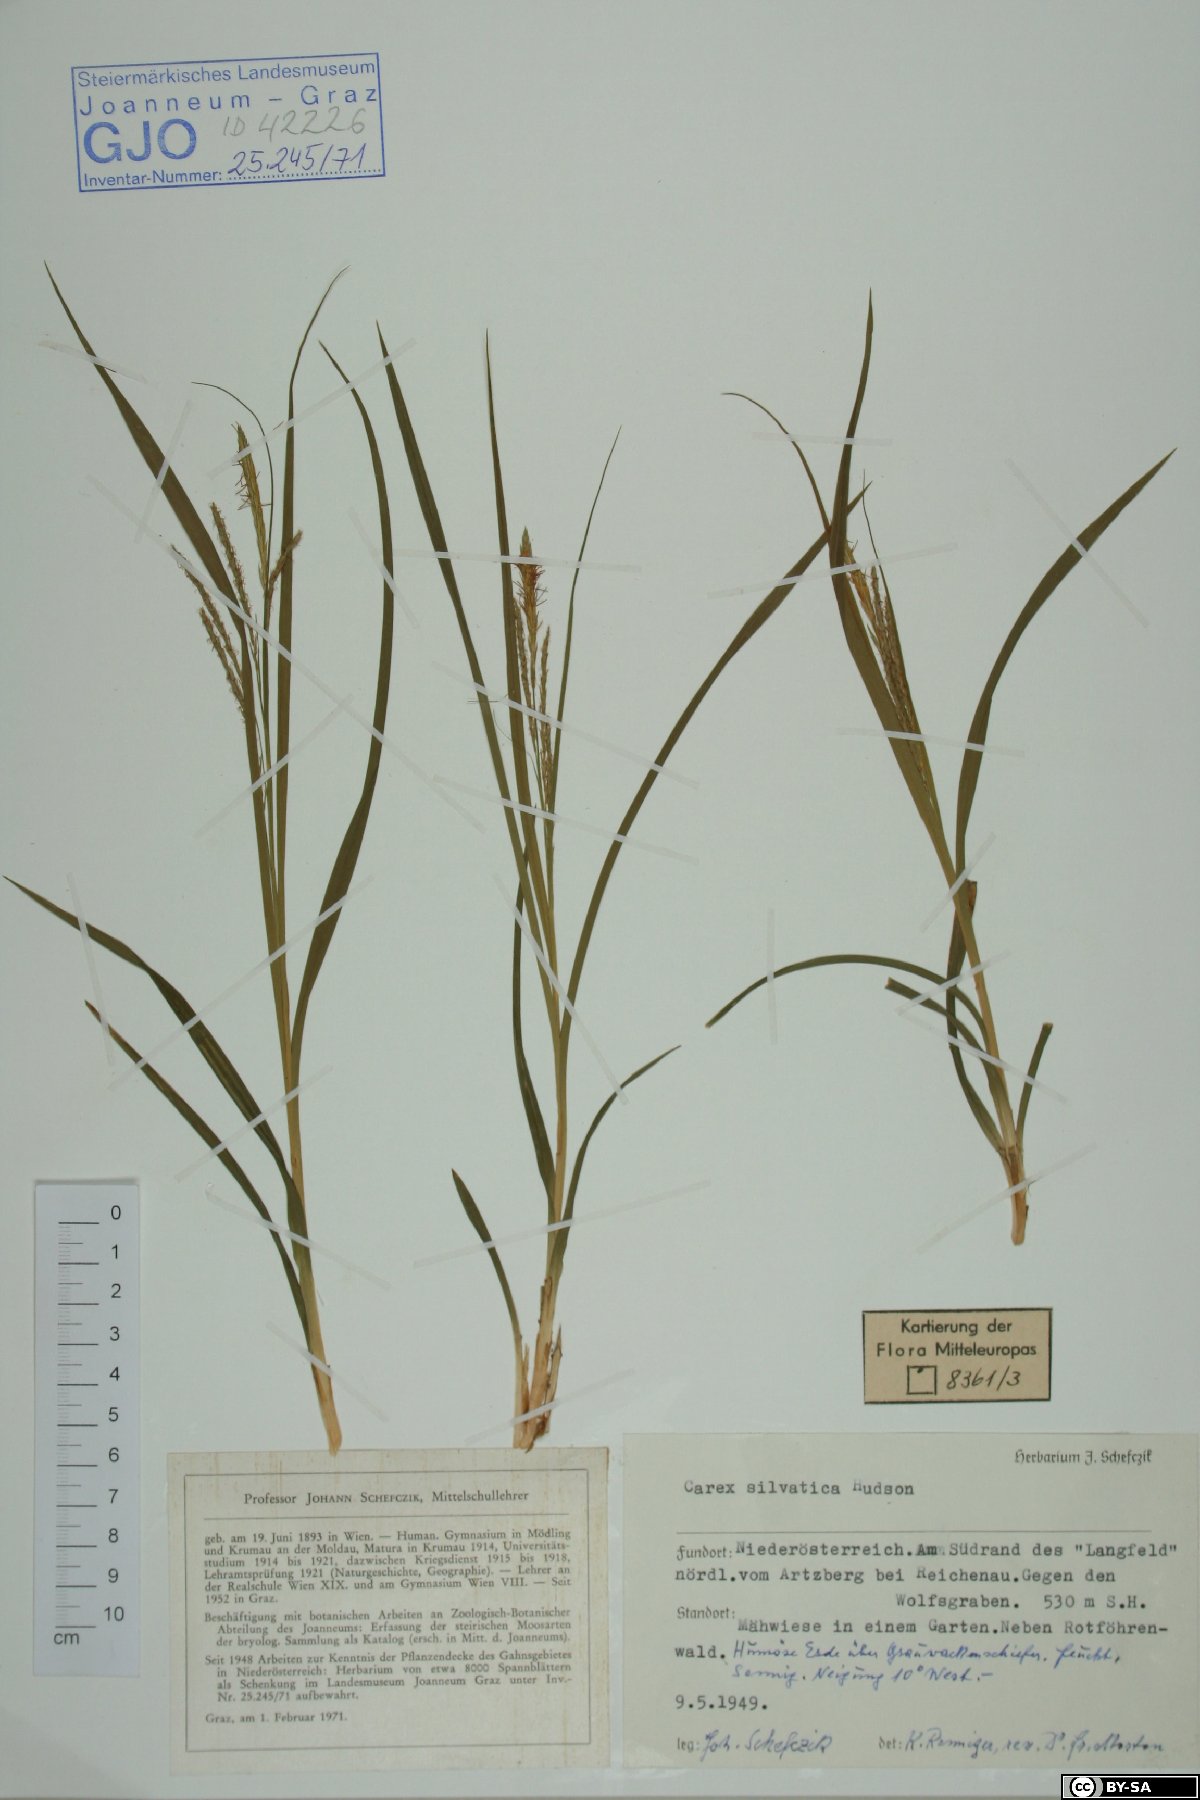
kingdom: Plantae
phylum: Tracheophyta
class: Liliopsida
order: Poales
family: Cyperaceae
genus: Carex
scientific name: Carex sylvatica
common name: Wood-sedge
